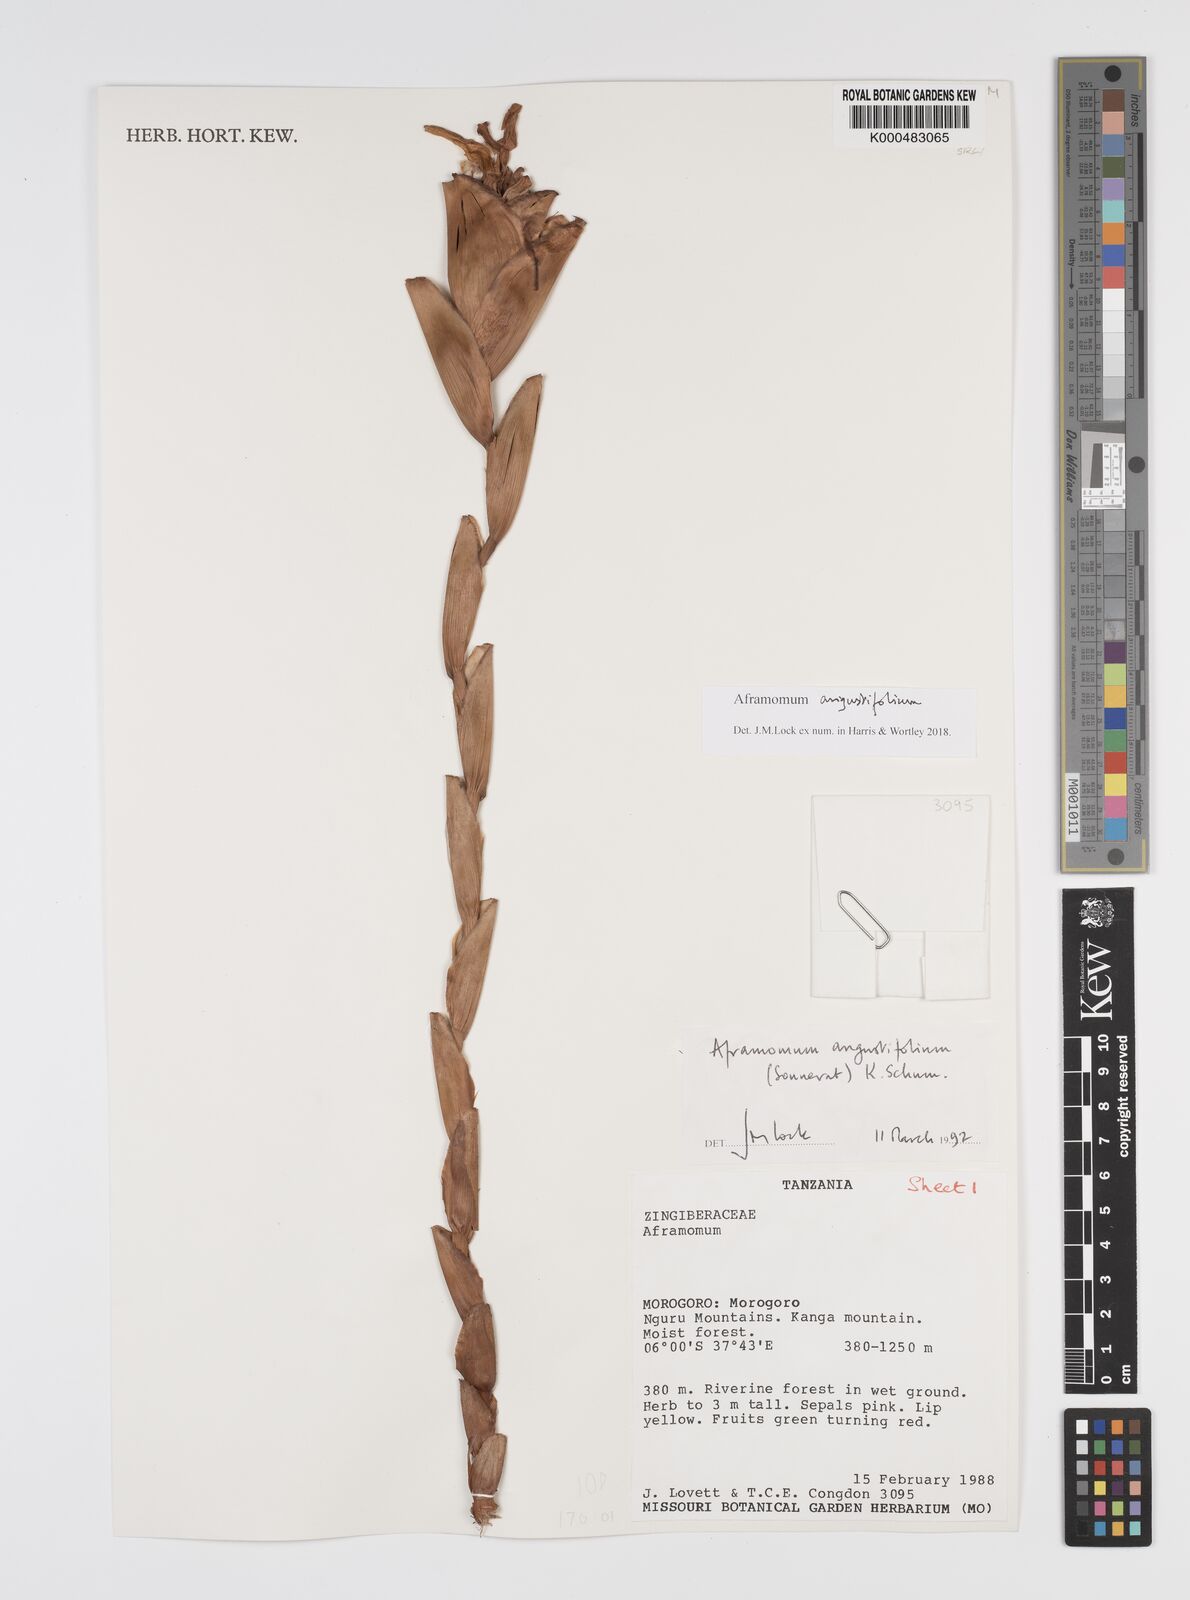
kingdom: Plantae
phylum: Tracheophyta
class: Liliopsida
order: Zingiberales
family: Zingiberaceae
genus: Aframomum
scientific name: Aframomum angustifolium
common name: Guinea grains
